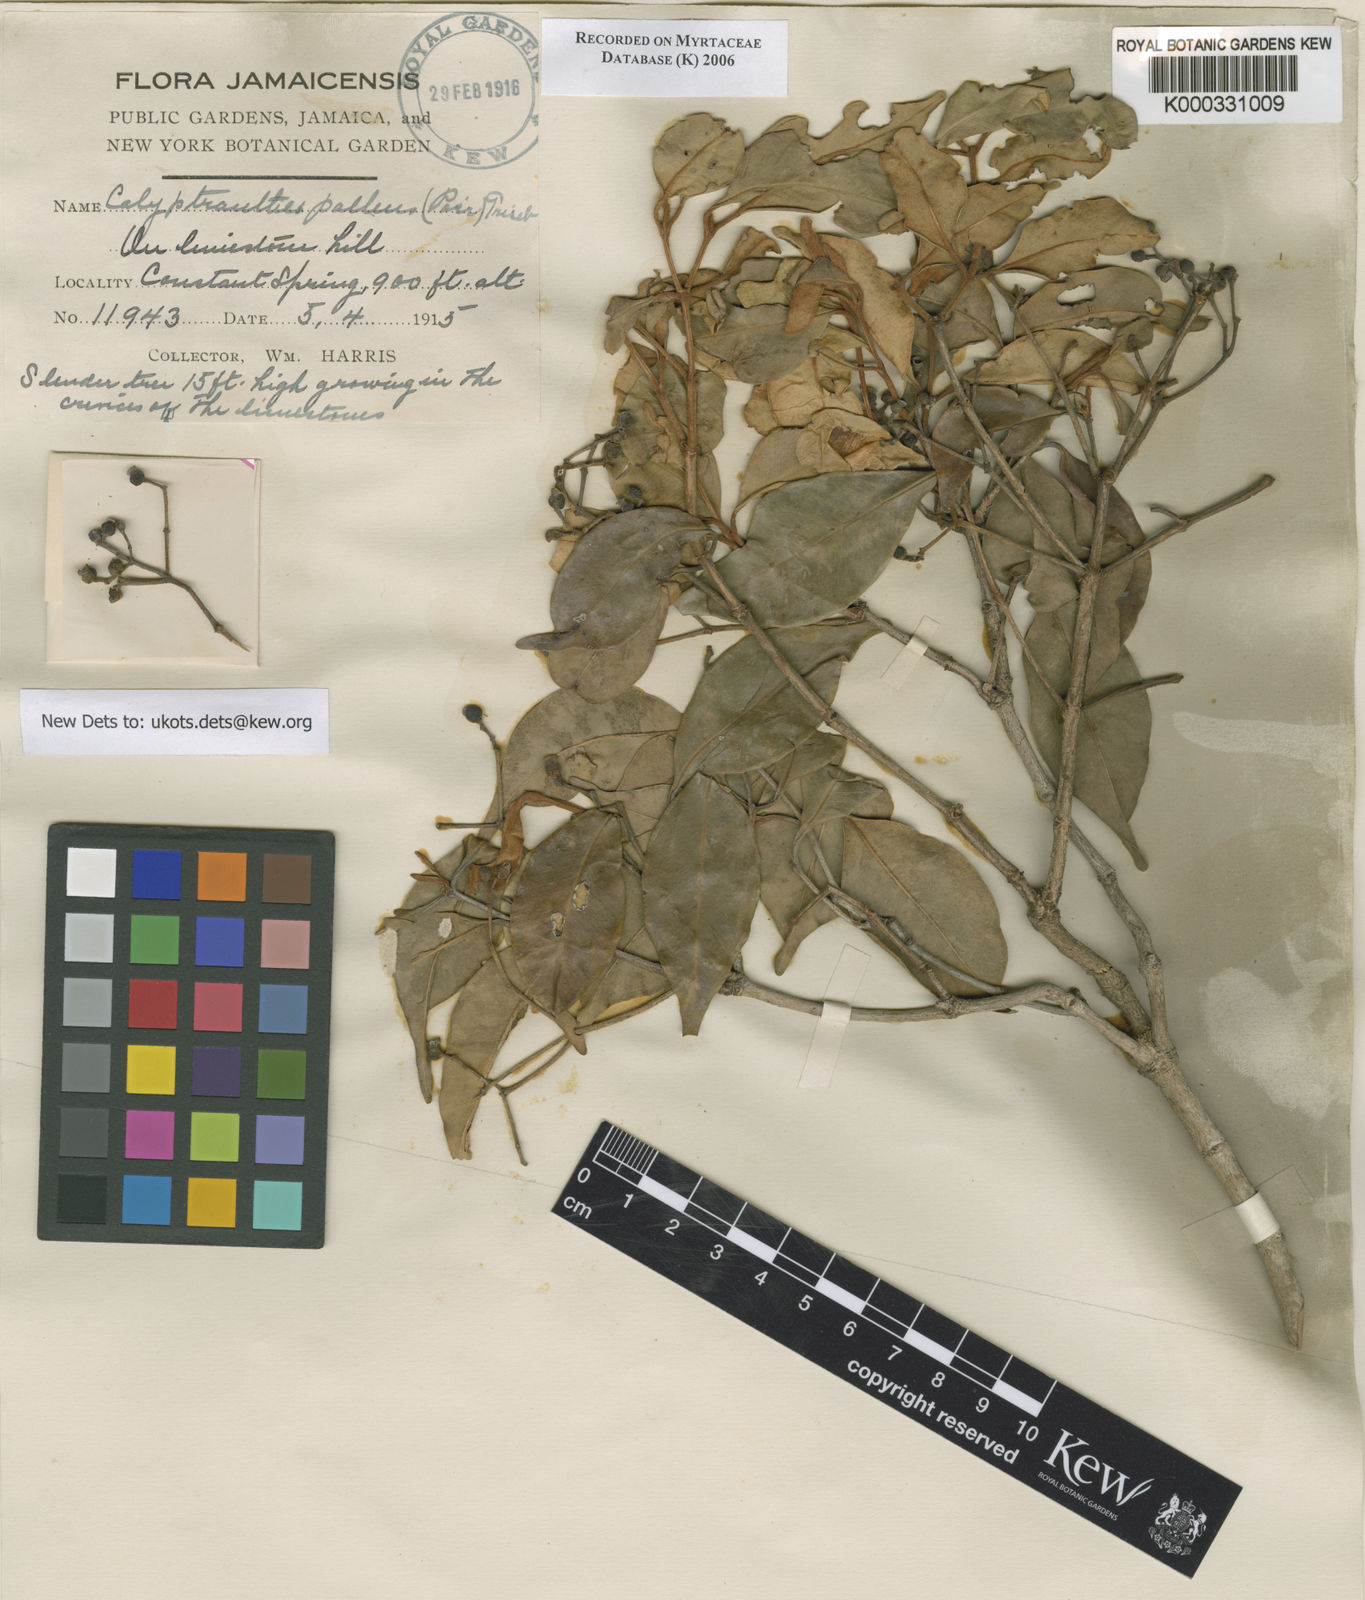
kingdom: Plantae
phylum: Tracheophyta
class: Magnoliopsida
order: Myrtales
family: Myrtaceae
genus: Myrcia
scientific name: Myrcia neopallens
